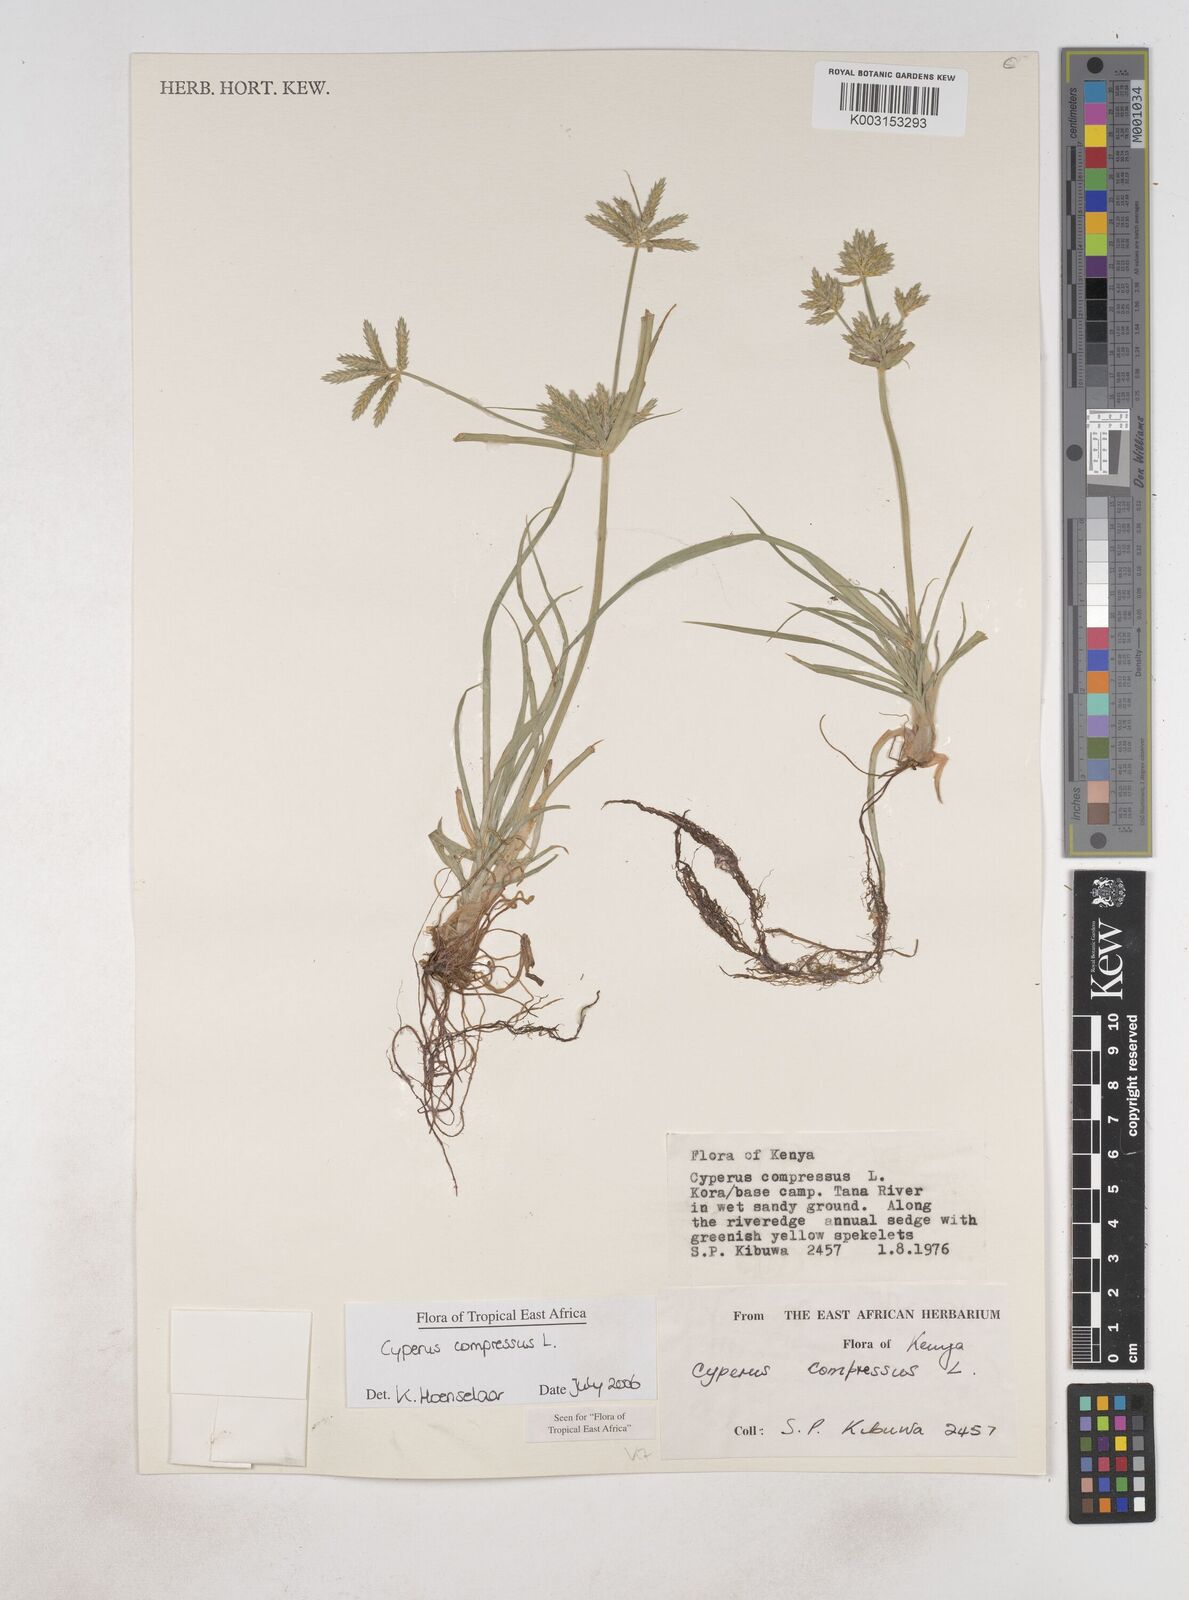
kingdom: Plantae
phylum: Tracheophyta
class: Liliopsida
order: Poales
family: Cyperaceae
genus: Cyperus
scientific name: Cyperus compressus
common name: Poorland flatsedge
